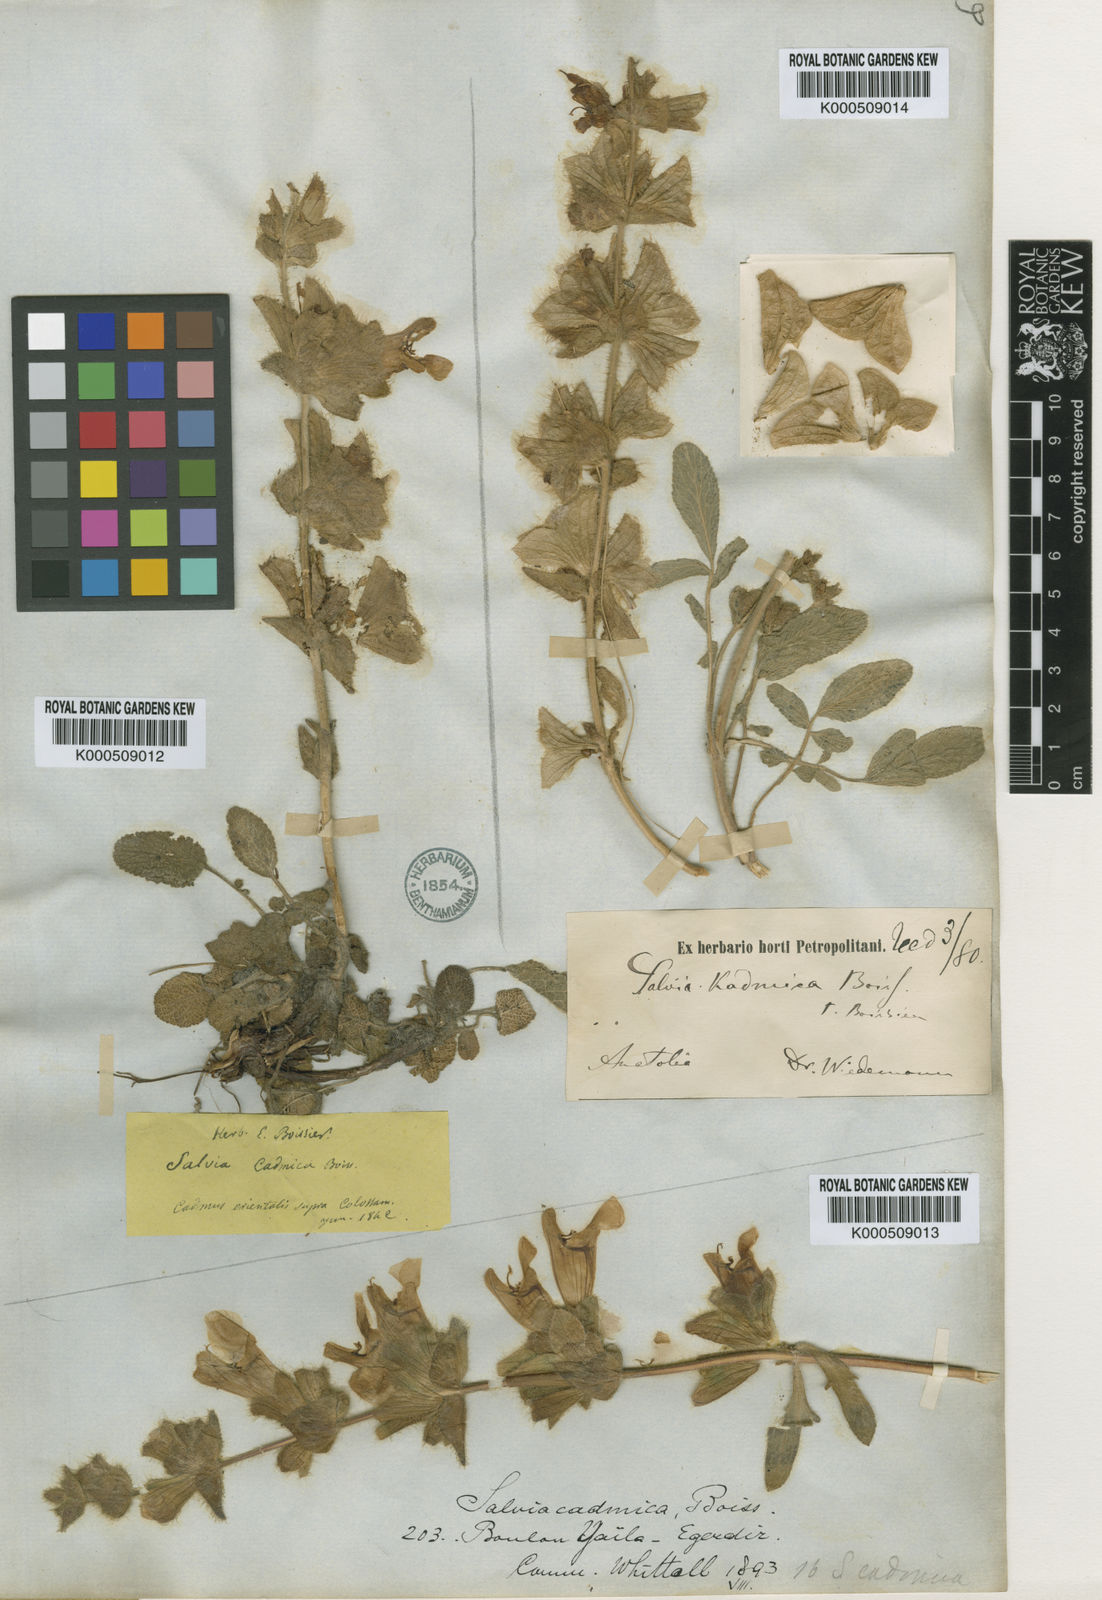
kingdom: Plantae
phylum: Tracheophyta
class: Magnoliopsida
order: Lamiales
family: Lamiaceae
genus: Salvia
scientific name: Salvia cadmica
